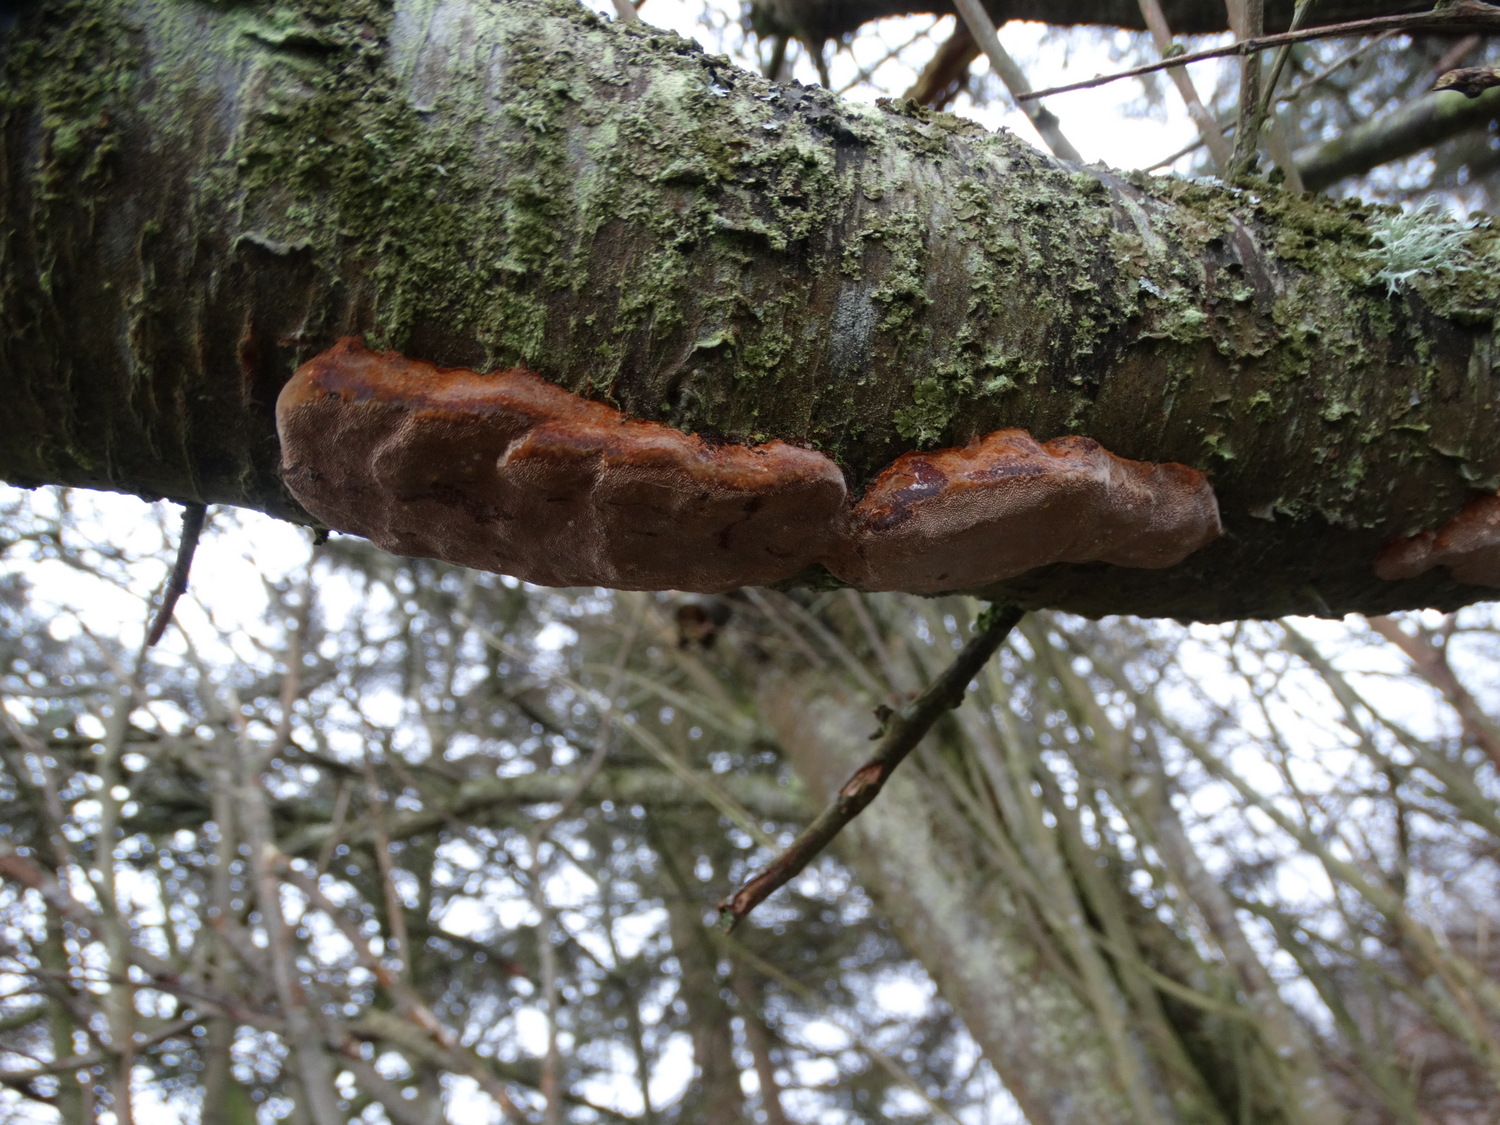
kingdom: Fungi
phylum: Basidiomycota
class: Agaricomycetes
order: Hymenochaetales
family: Hymenochaetaceae
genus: Phellinus
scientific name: Phellinus pomaceus
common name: blomme-ildporesvamp
